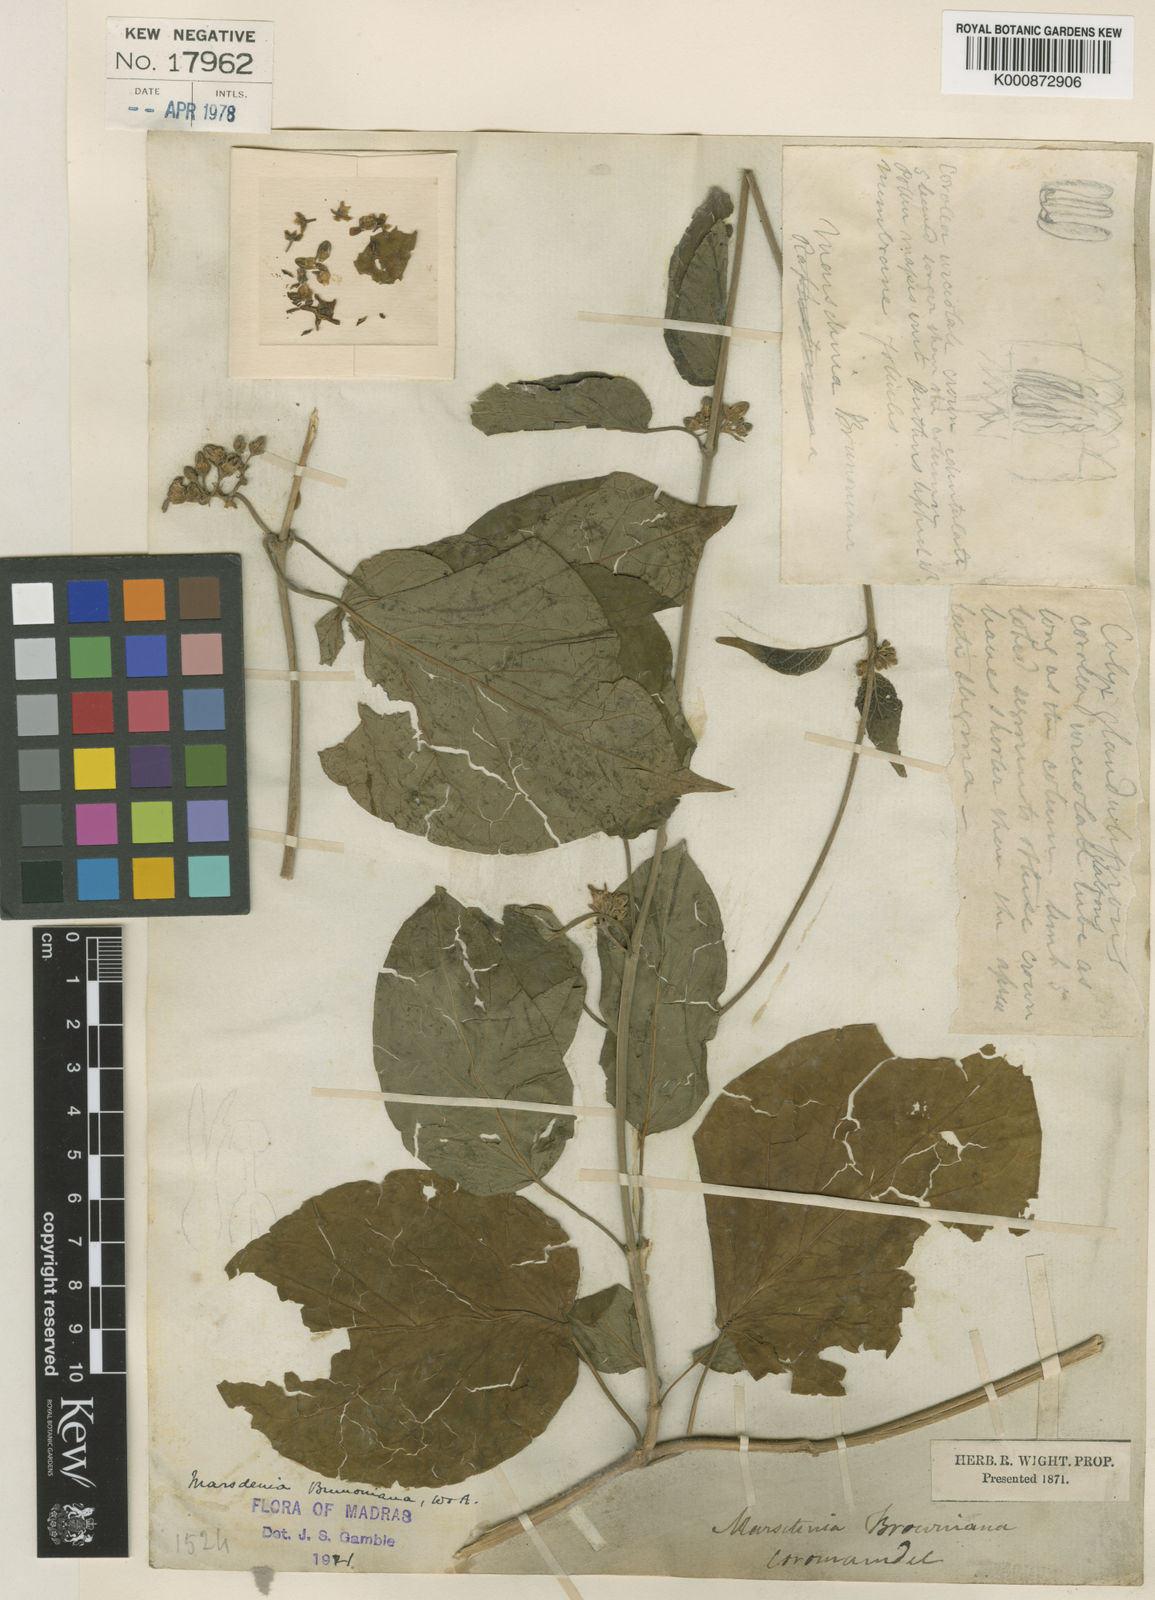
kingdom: Plantae
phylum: Tracheophyta
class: Magnoliopsida
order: Gentianales
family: Apocynaceae
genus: Marsdenia
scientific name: Marsdenia brunoniana
